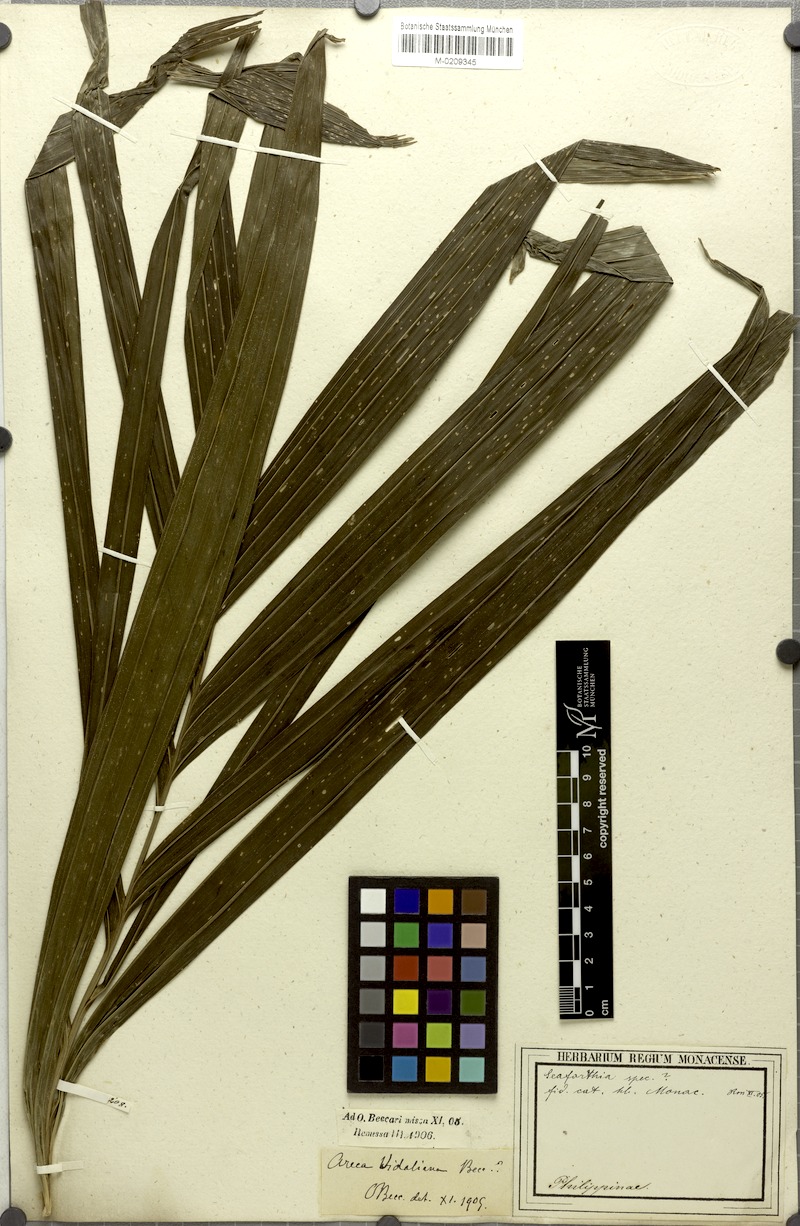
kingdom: Plantae
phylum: Tracheophyta
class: Liliopsida
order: Arecales
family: Arecaceae
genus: Areca
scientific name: Areca vidaliana
